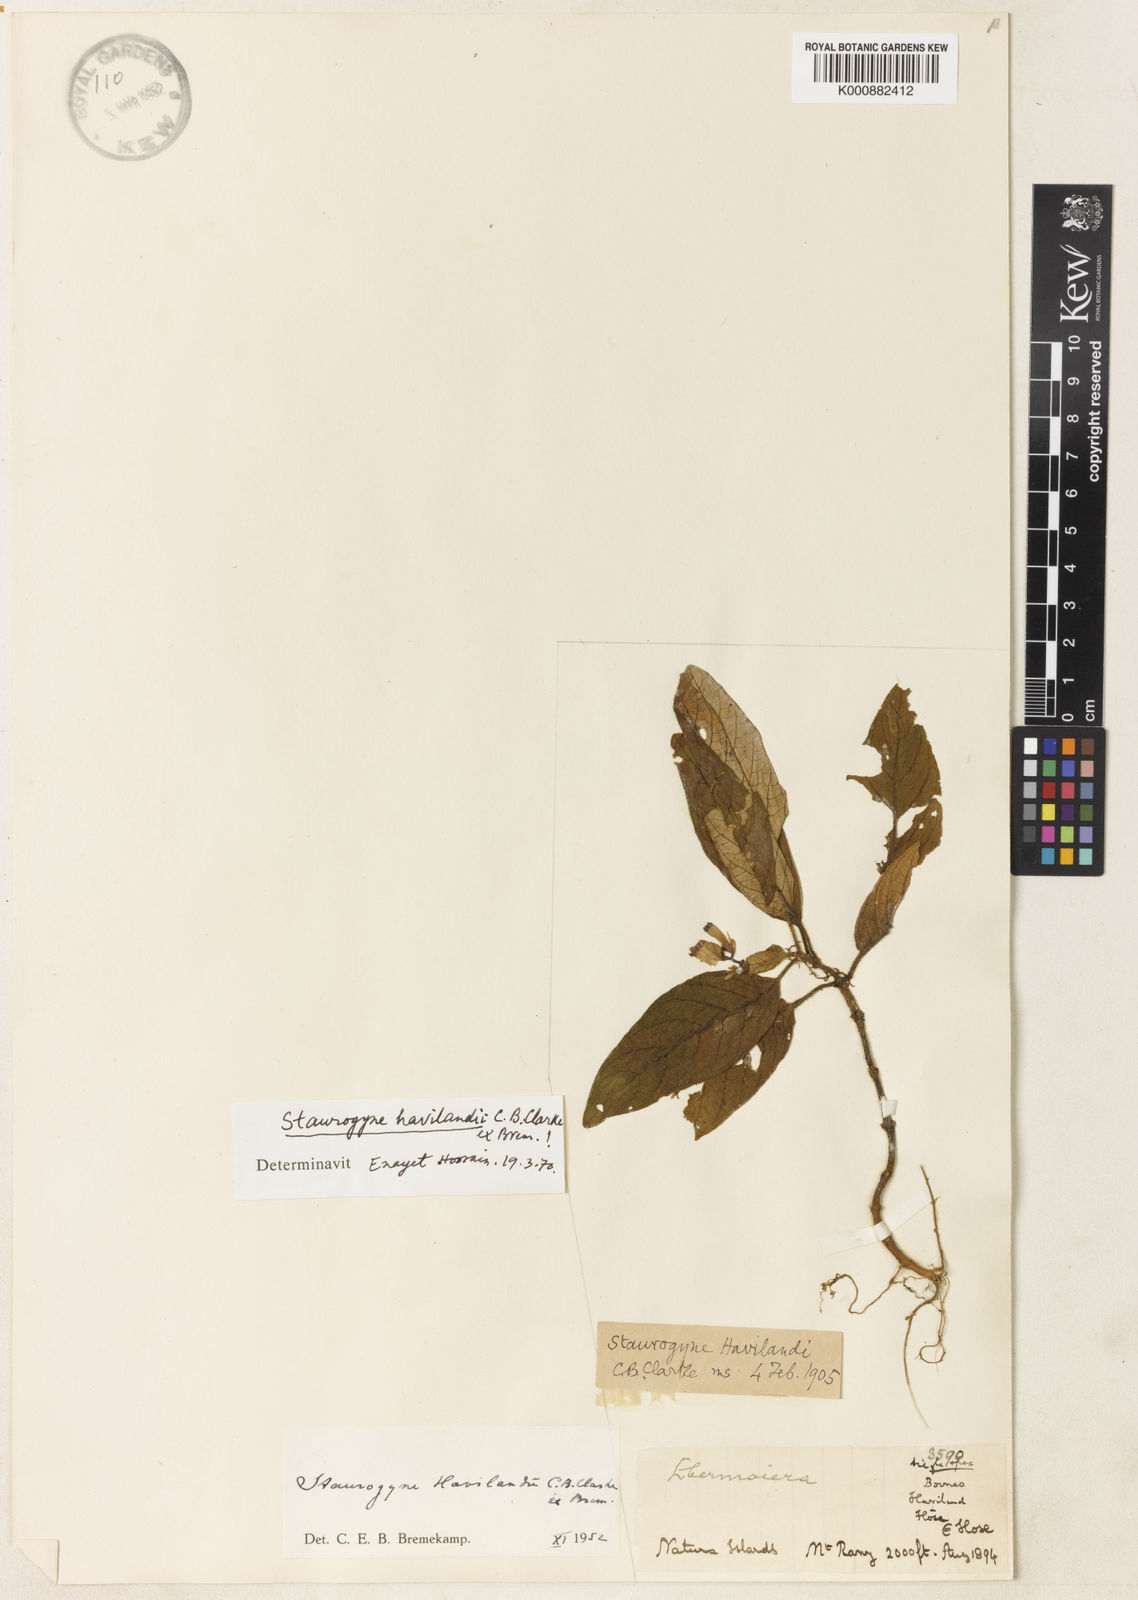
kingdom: Plantae
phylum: Tracheophyta
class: Magnoliopsida
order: Lamiales
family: Acanthaceae
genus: Staurogyne
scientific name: Staurogyne havilandii
